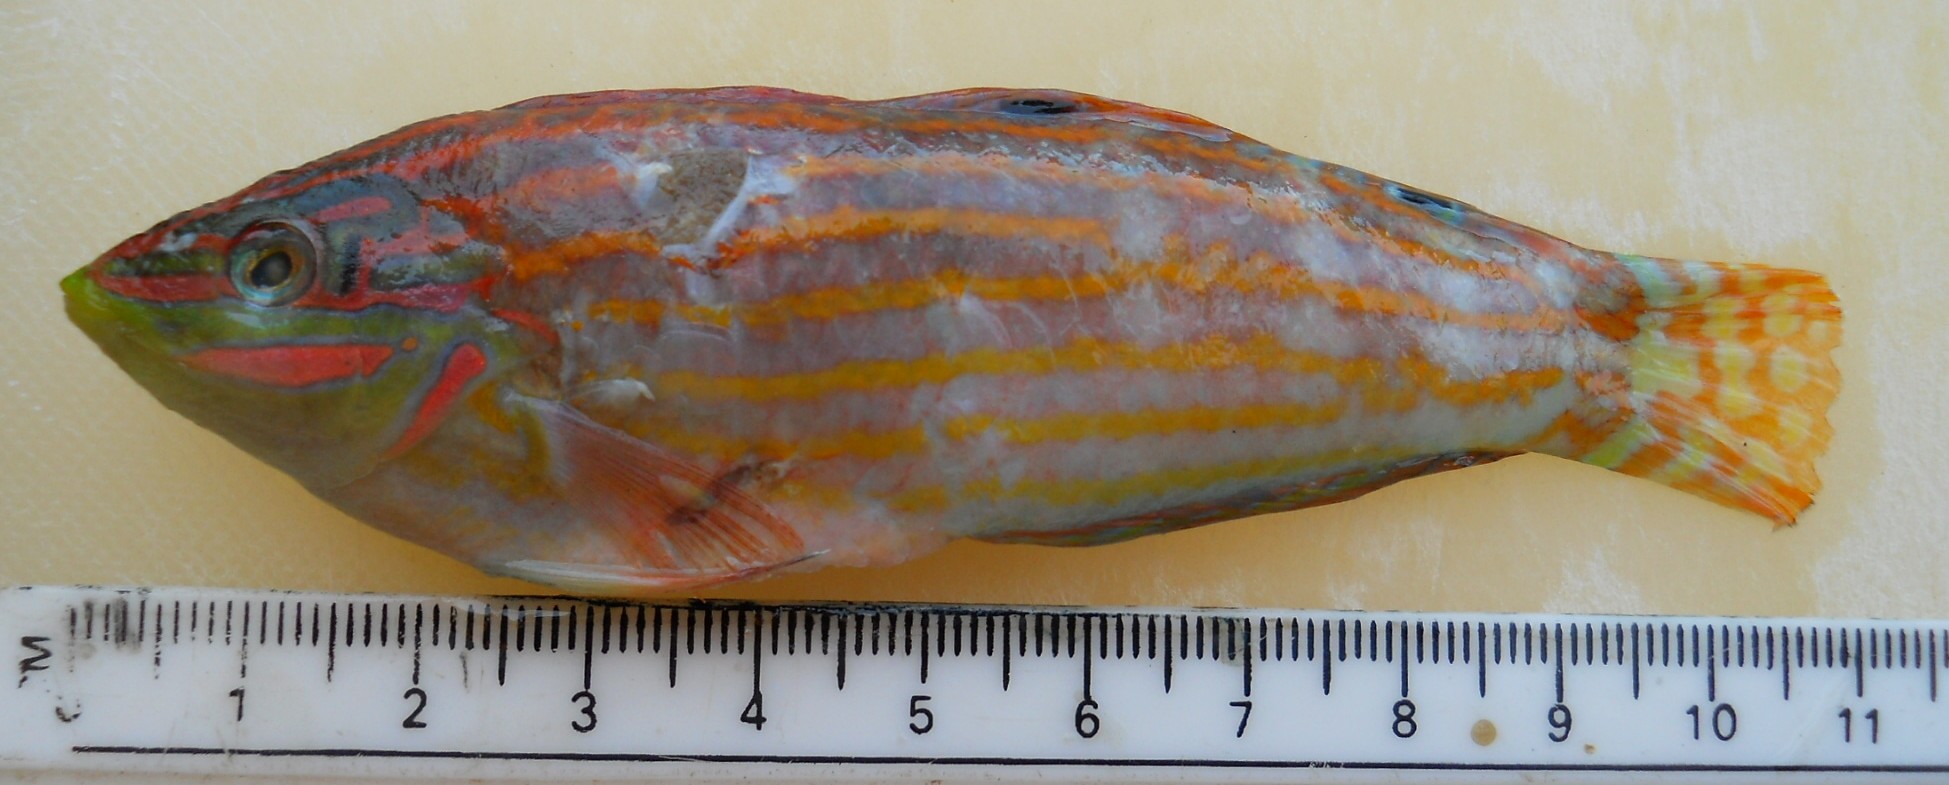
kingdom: Animalia
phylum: Chordata
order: Perciformes
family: Labridae
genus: Halichoeres
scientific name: Halichoeres cosmetus
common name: Adorned wrasse
